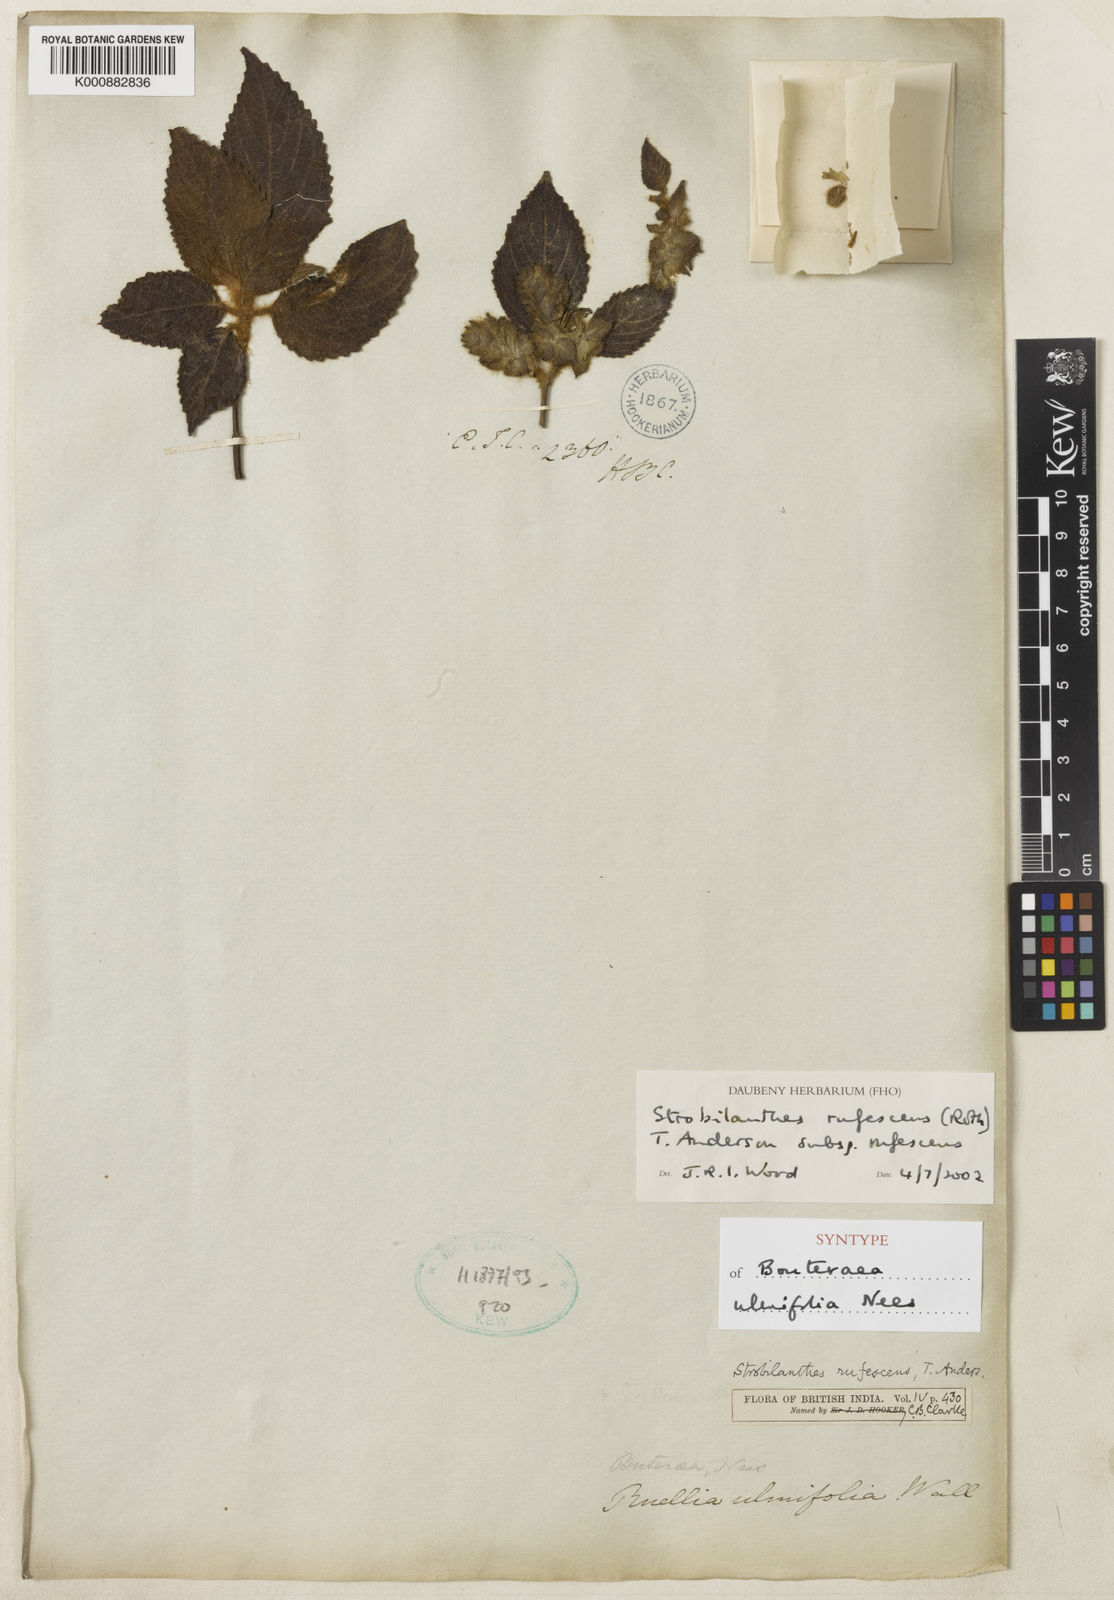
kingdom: Plantae
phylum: Tracheophyta
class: Magnoliopsida
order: Lamiales
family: Acanthaceae
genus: Strobilanthes
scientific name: Strobilanthes rufescens
